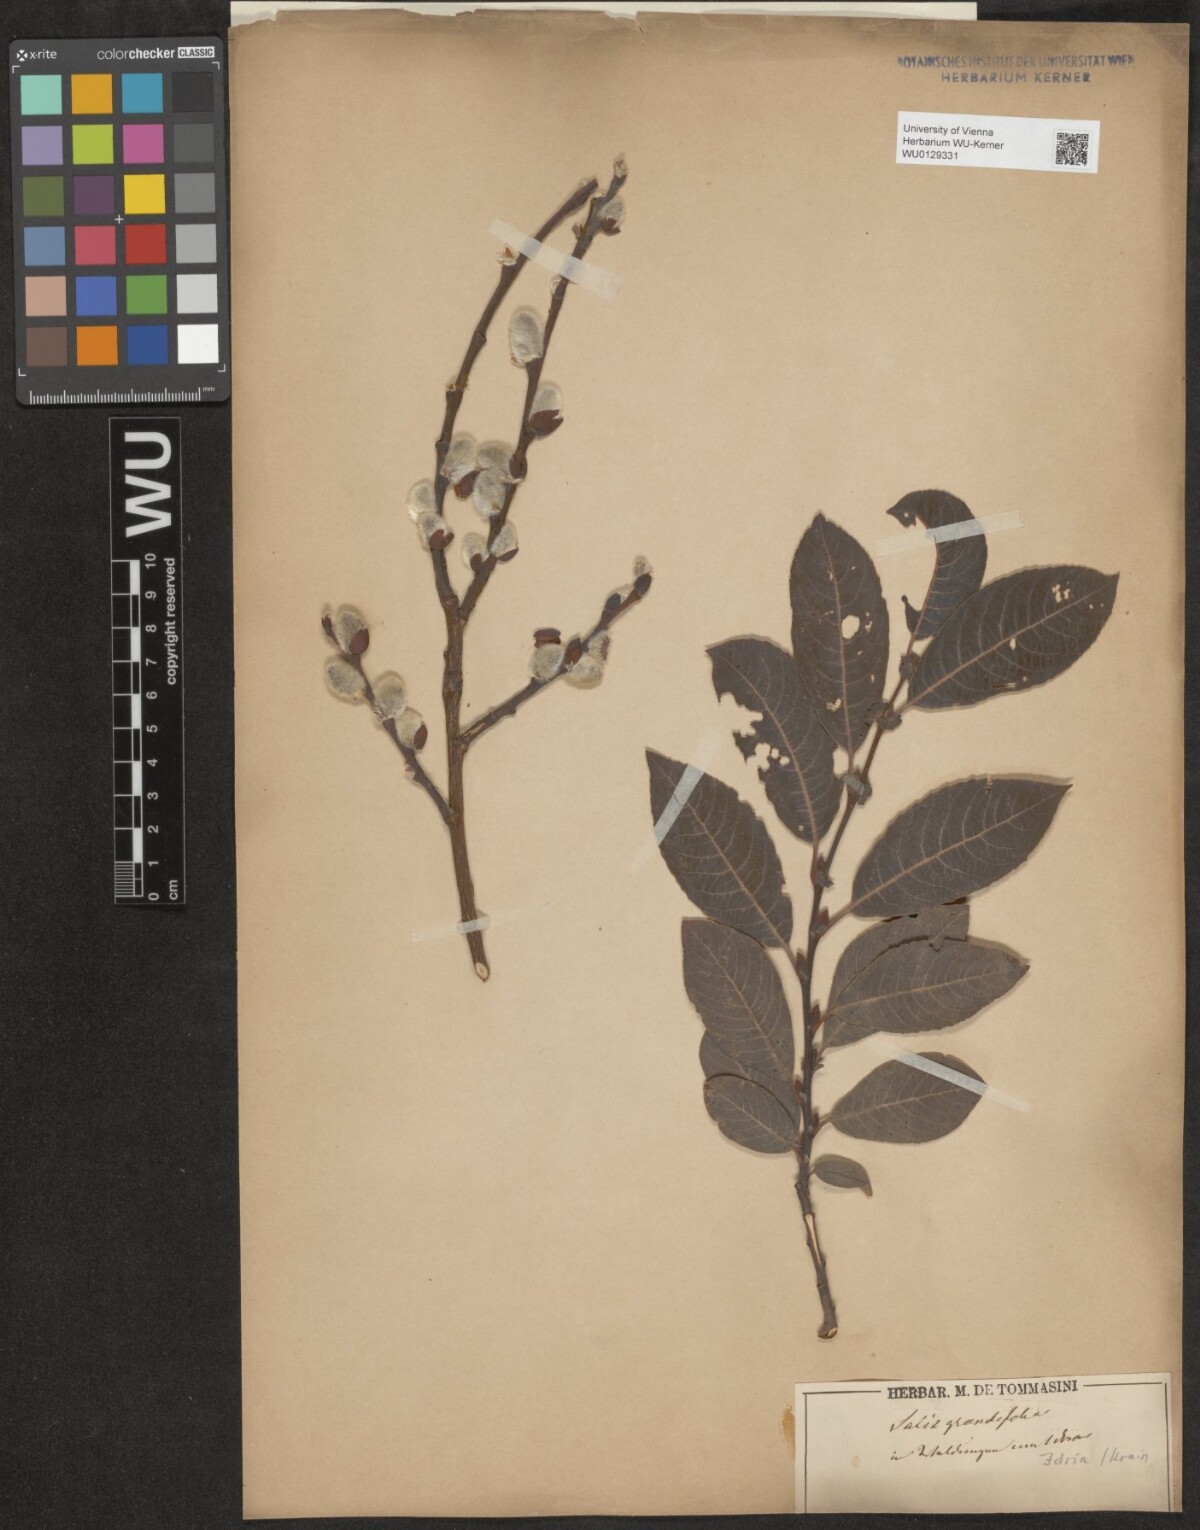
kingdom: Plantae
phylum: Tracheophyta
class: Magnoliopsida
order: Malpighiales
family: Salicaceae
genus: Salix
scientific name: Salix appendiculata
